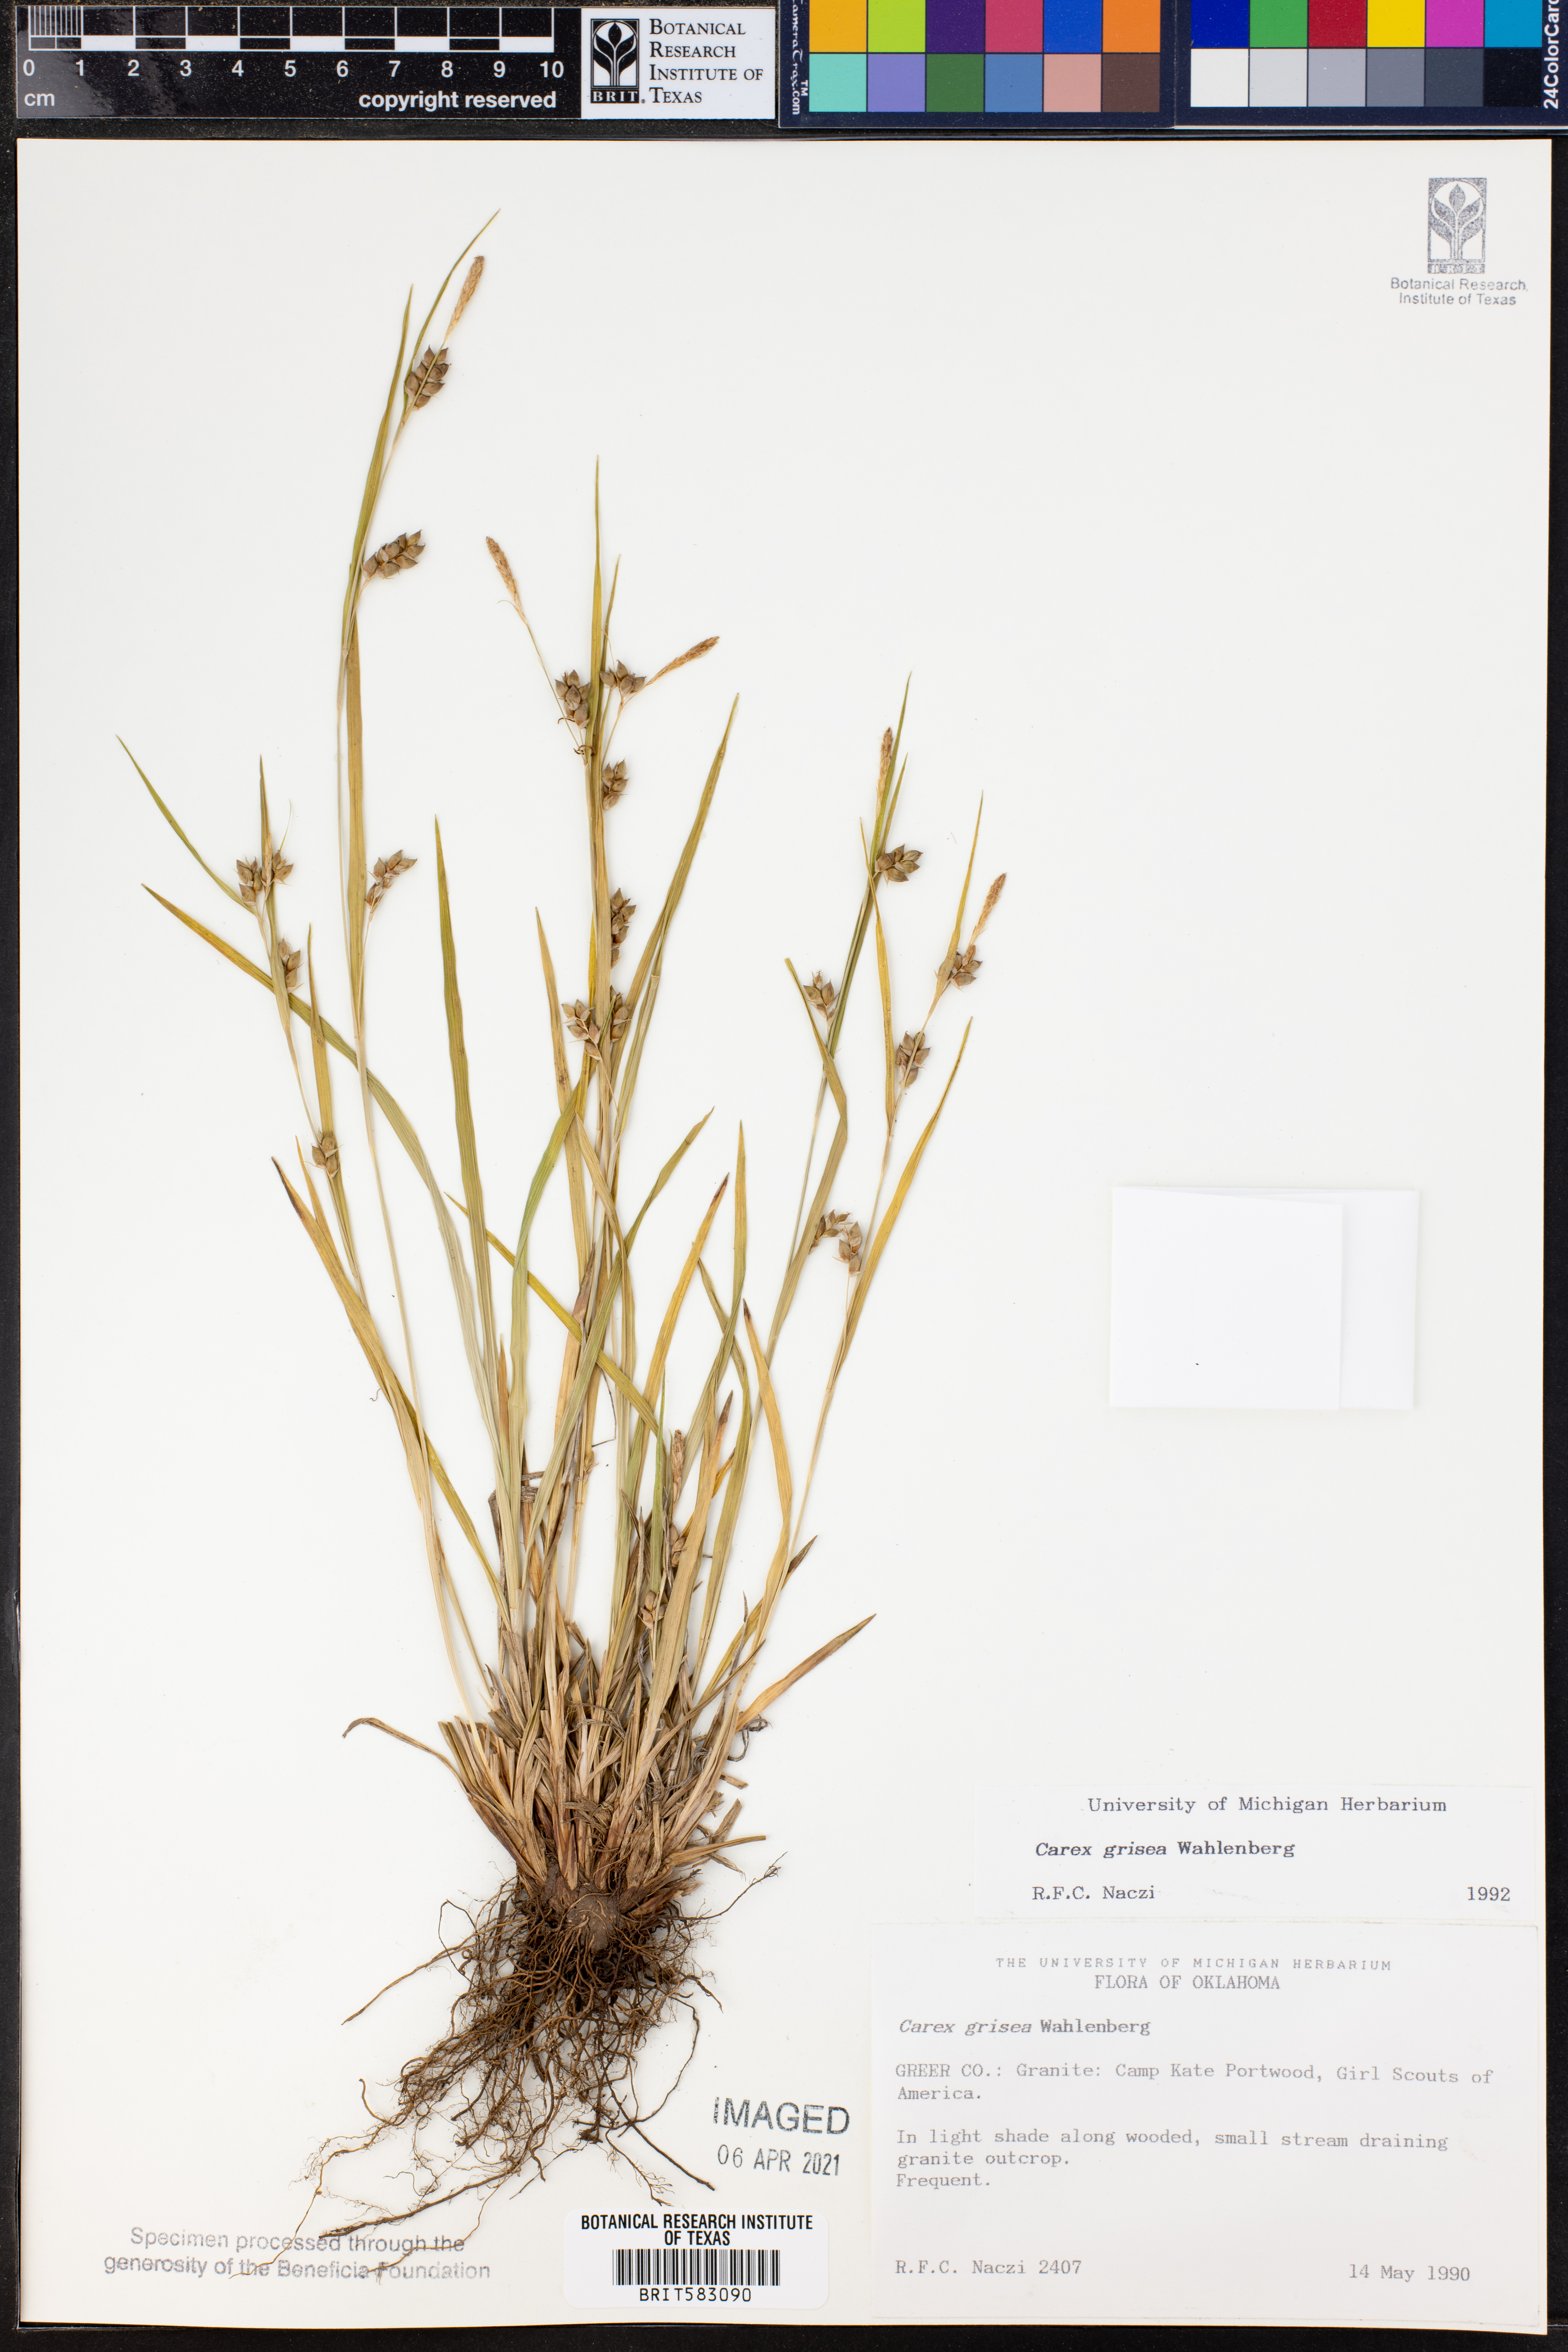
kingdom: Plantae
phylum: Tracheophyta
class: Liliopsida
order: Poales
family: Cyperaceae
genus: Carex
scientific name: Carex grisea
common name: Eastern narrow-leaved sedge
